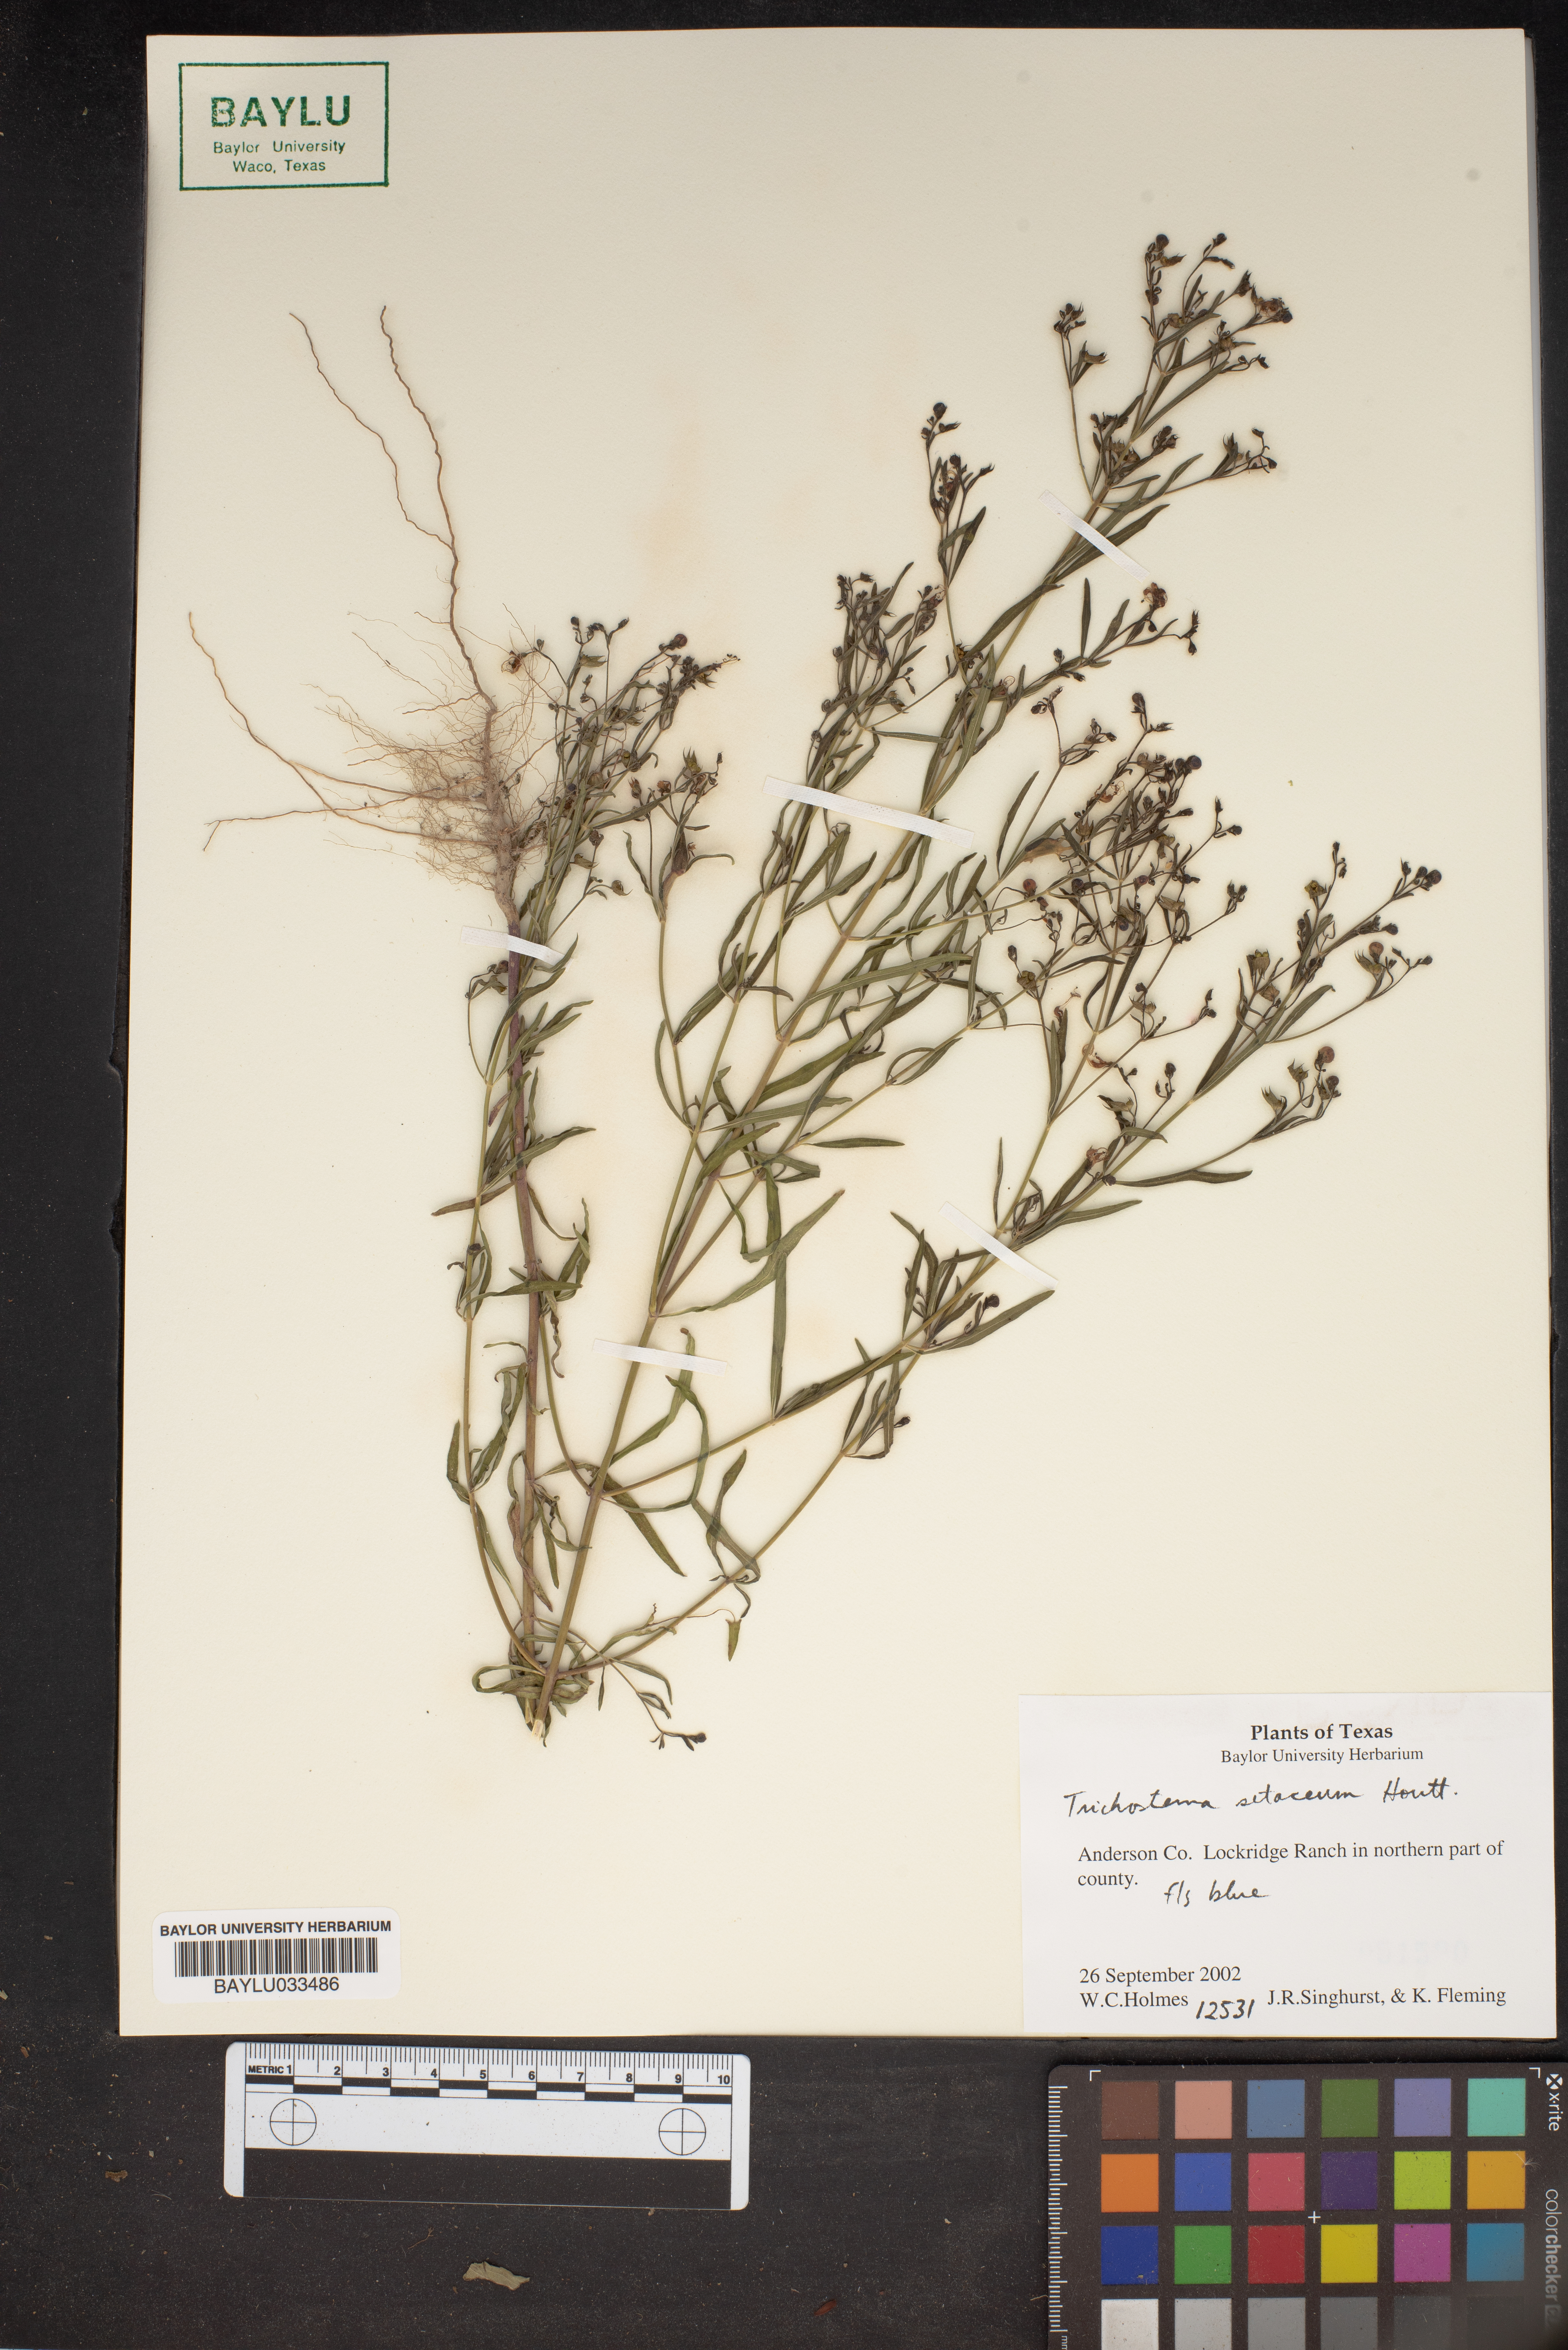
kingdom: Plantae
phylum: Tracheophyta
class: Magnoliopsida
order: Lamiales
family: Lamiaceae
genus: Trichostema
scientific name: Trichostema setaceum
